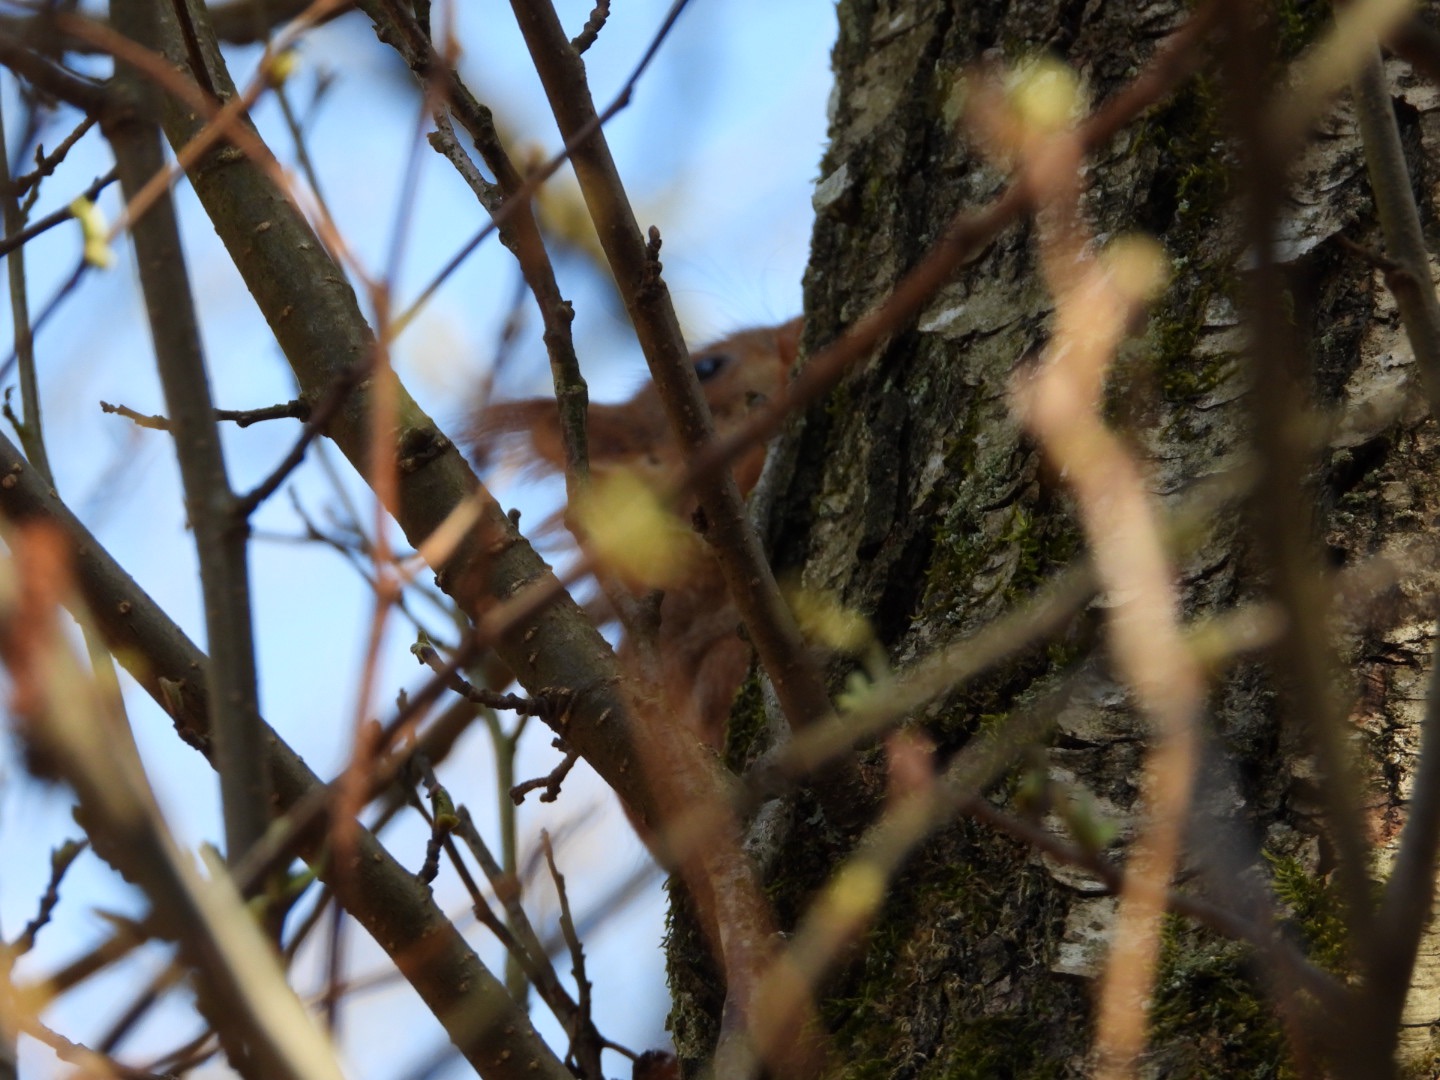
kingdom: Animalia
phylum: Chordata
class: Mammalia
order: Rodentia
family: Sciuridae
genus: Sciurus
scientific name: Sciurus vulgaris
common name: Egern
